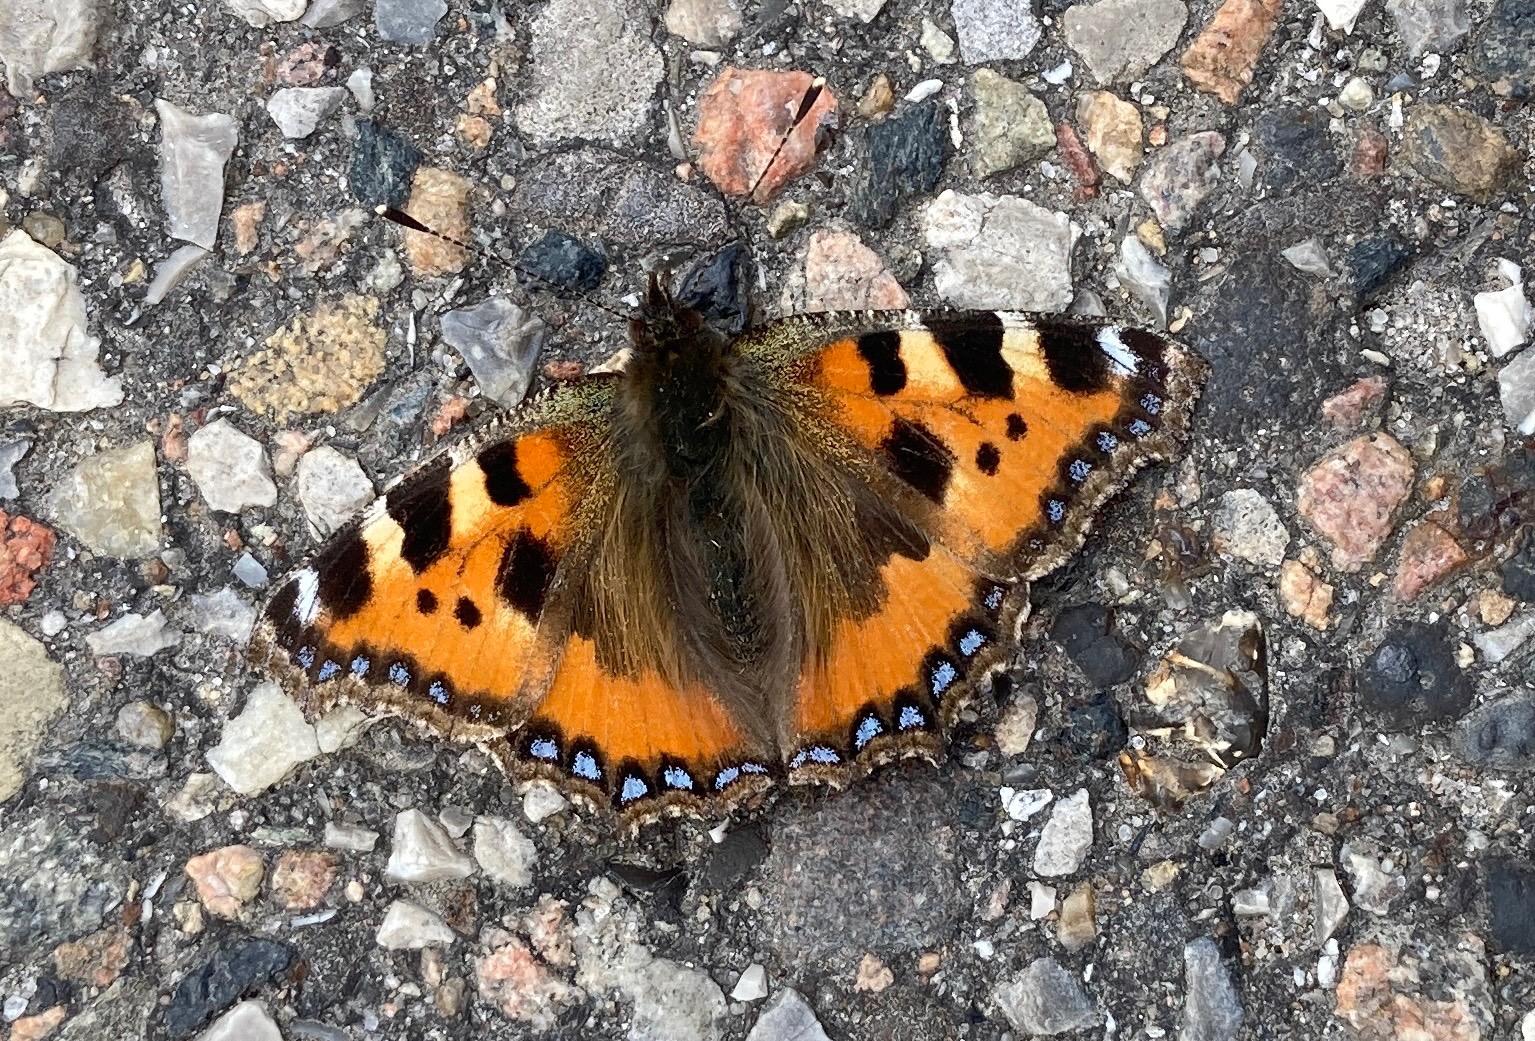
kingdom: Animalia
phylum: Arthropoda
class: Insecta
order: Lepidoptera
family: Nymphalidae
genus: Aglais
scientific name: Aglais urticae
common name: Nældens takvinge
